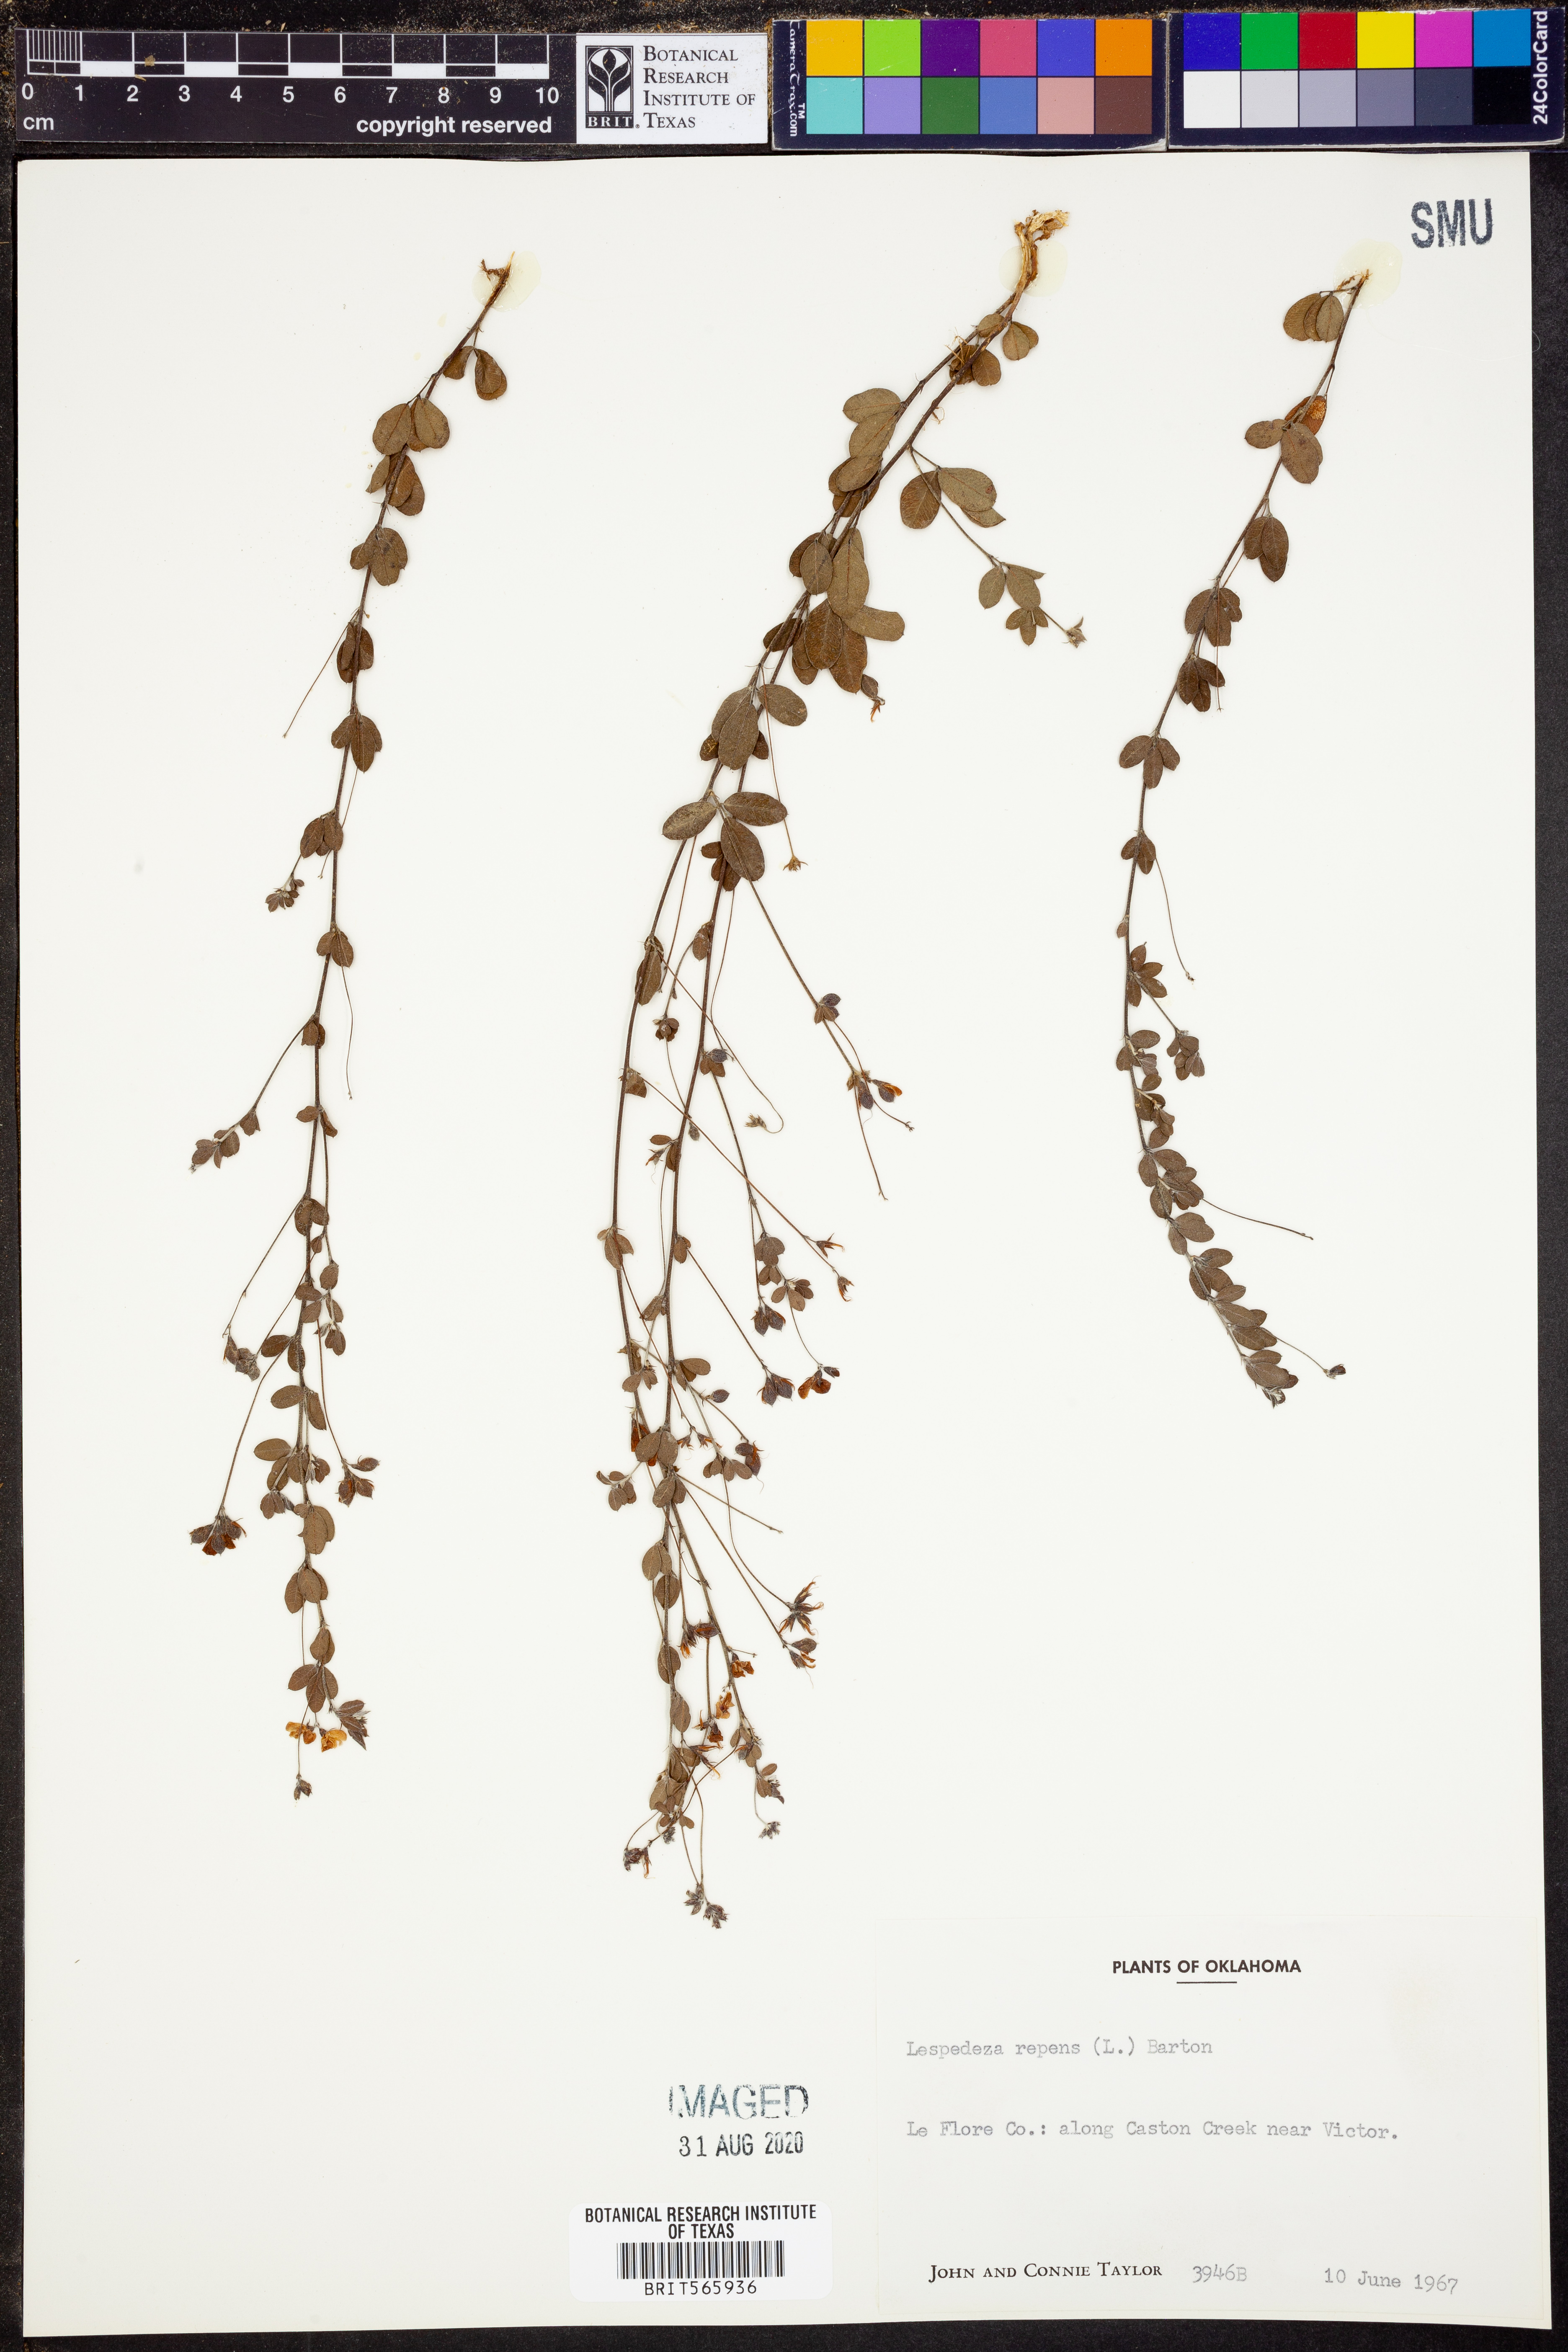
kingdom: Plantae
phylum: Tracheophyta
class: Magnoliopsida
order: Fabales
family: Fabaceae
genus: Lespedeza
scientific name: Lespedeza repens
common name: Creeping bush-clover
